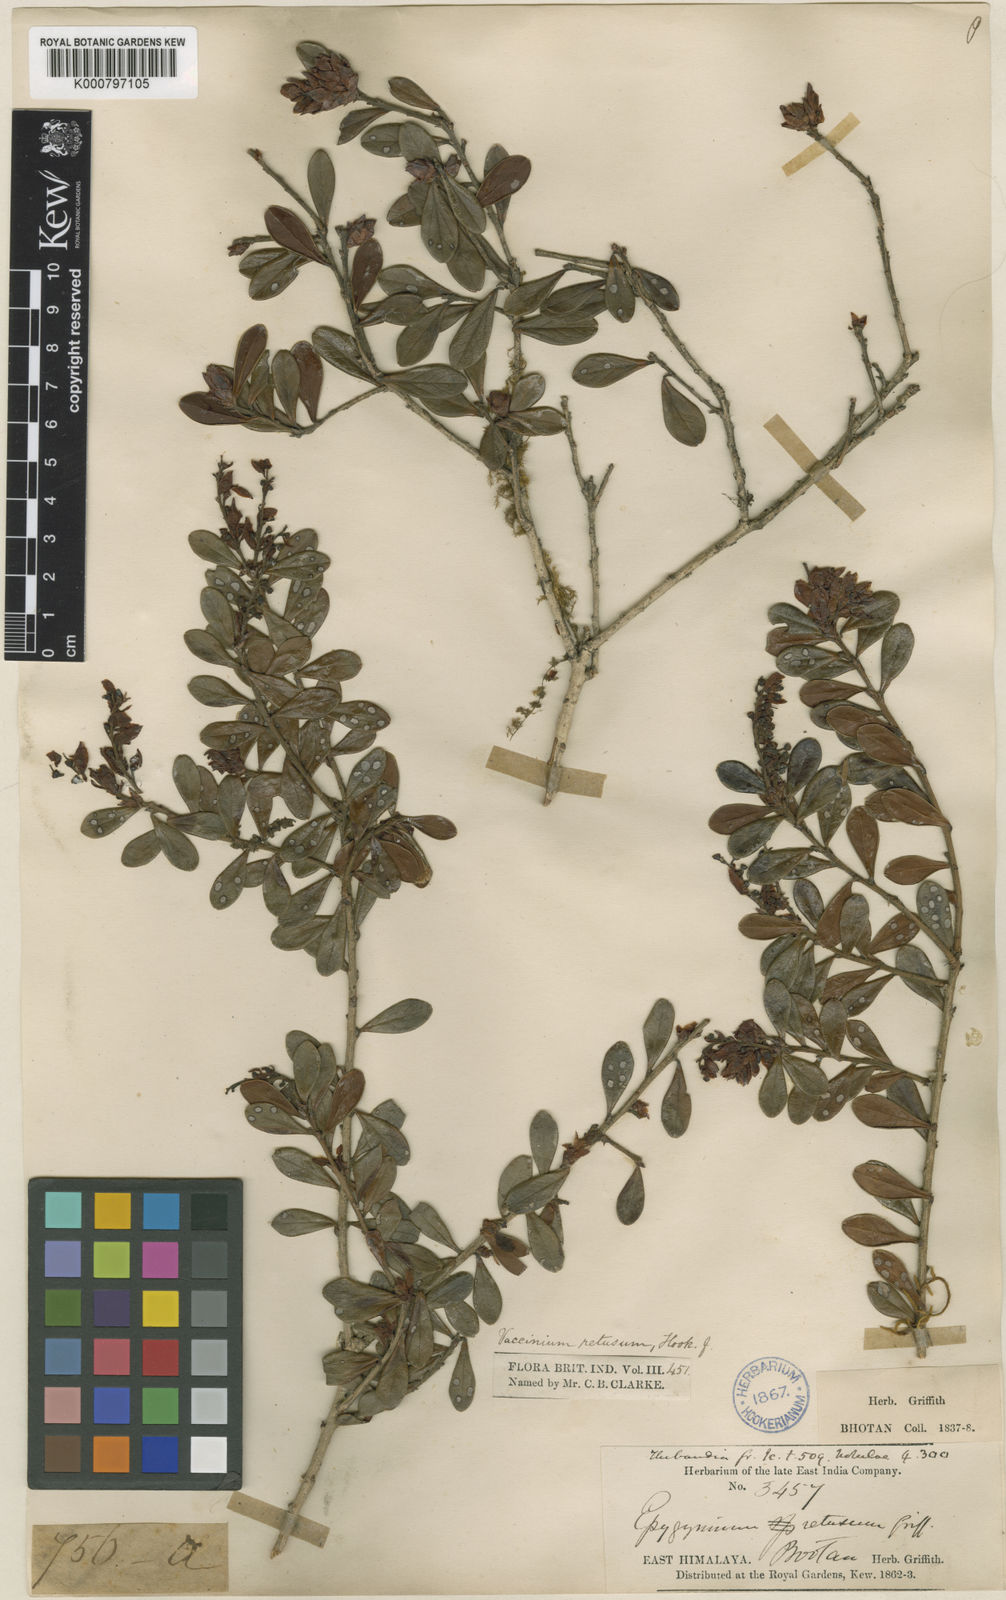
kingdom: Plantae
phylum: Tracheophyta
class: Magnoliopsida
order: Ericales
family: Ericaceae
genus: Vaccinium
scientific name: Vaccinium retusum
